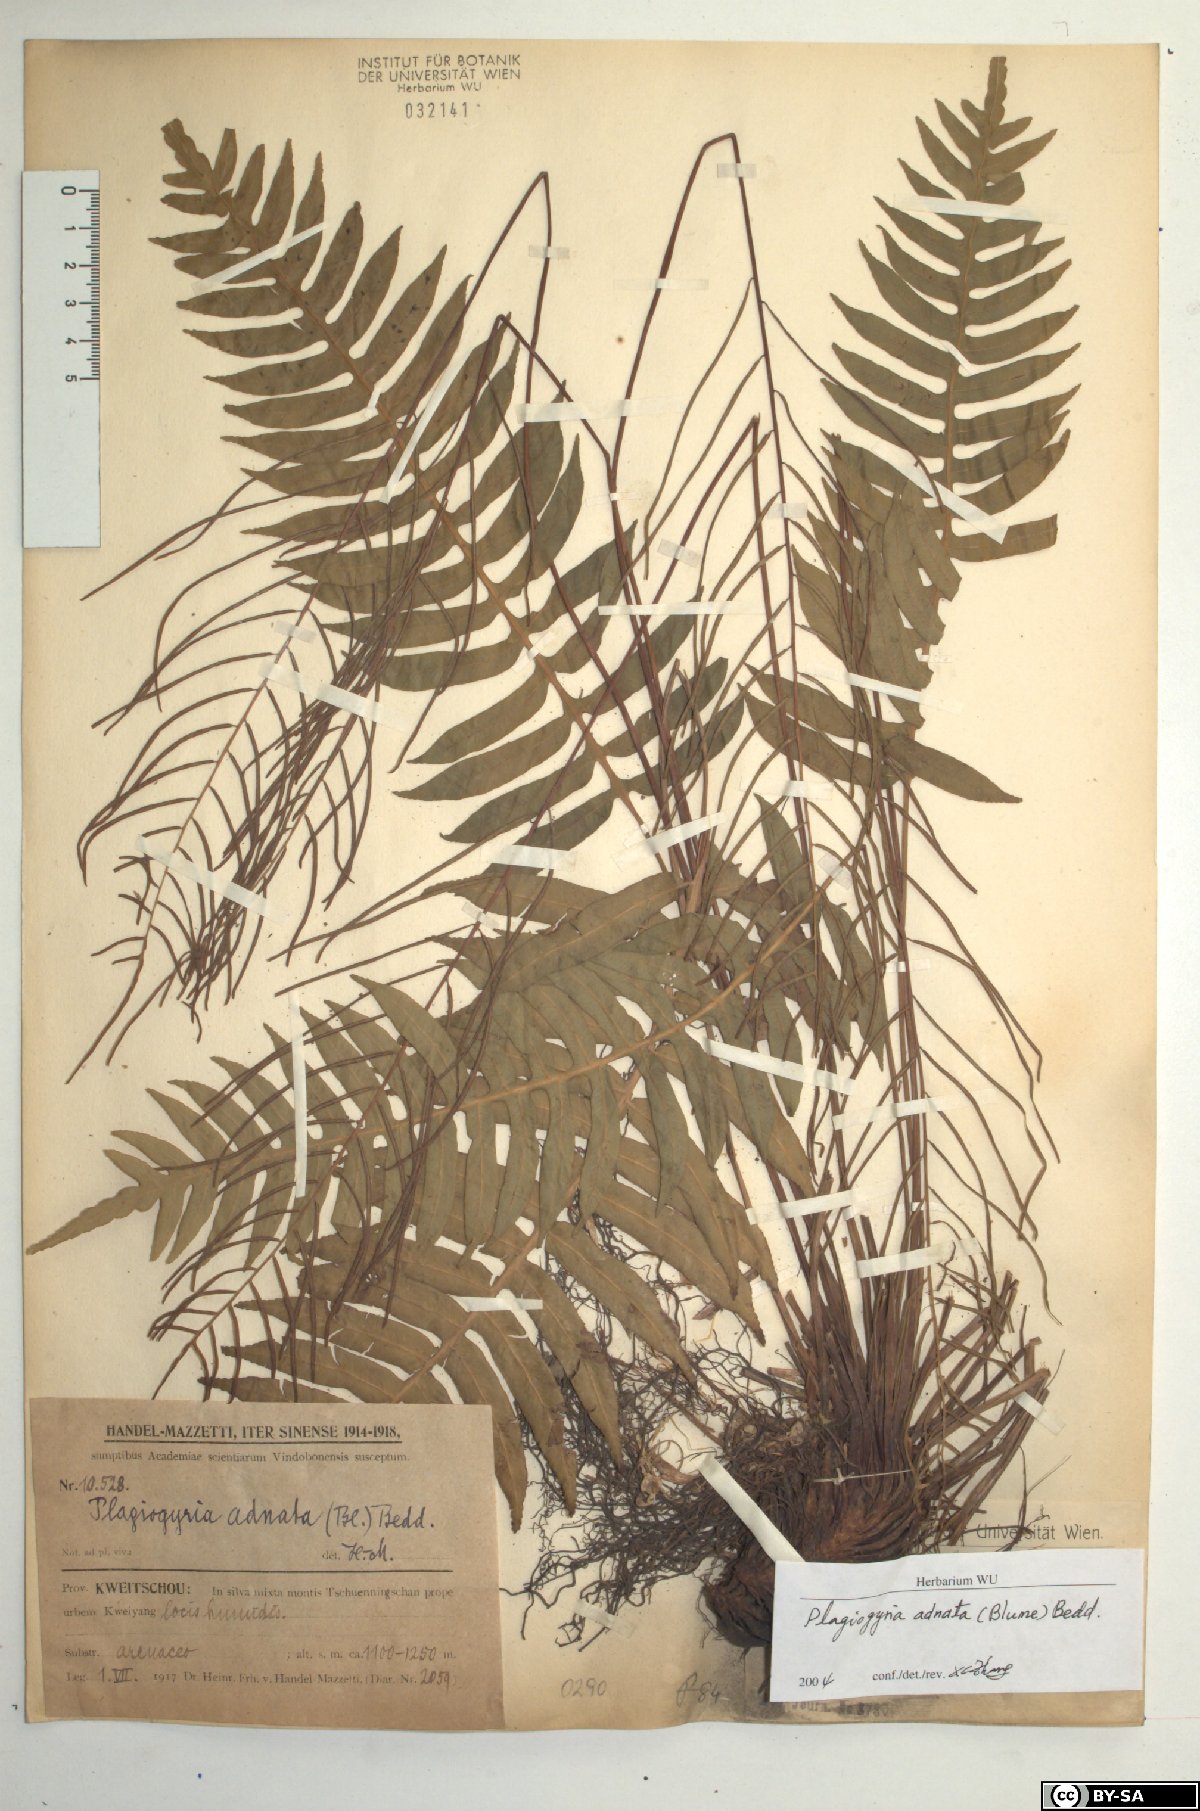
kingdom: Plantae
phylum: Tracheophyta
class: Polypodiopsida
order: Cyatheales
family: Plagiogyriaceae
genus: Plagiogyria
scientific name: Plagiogyria adnata
